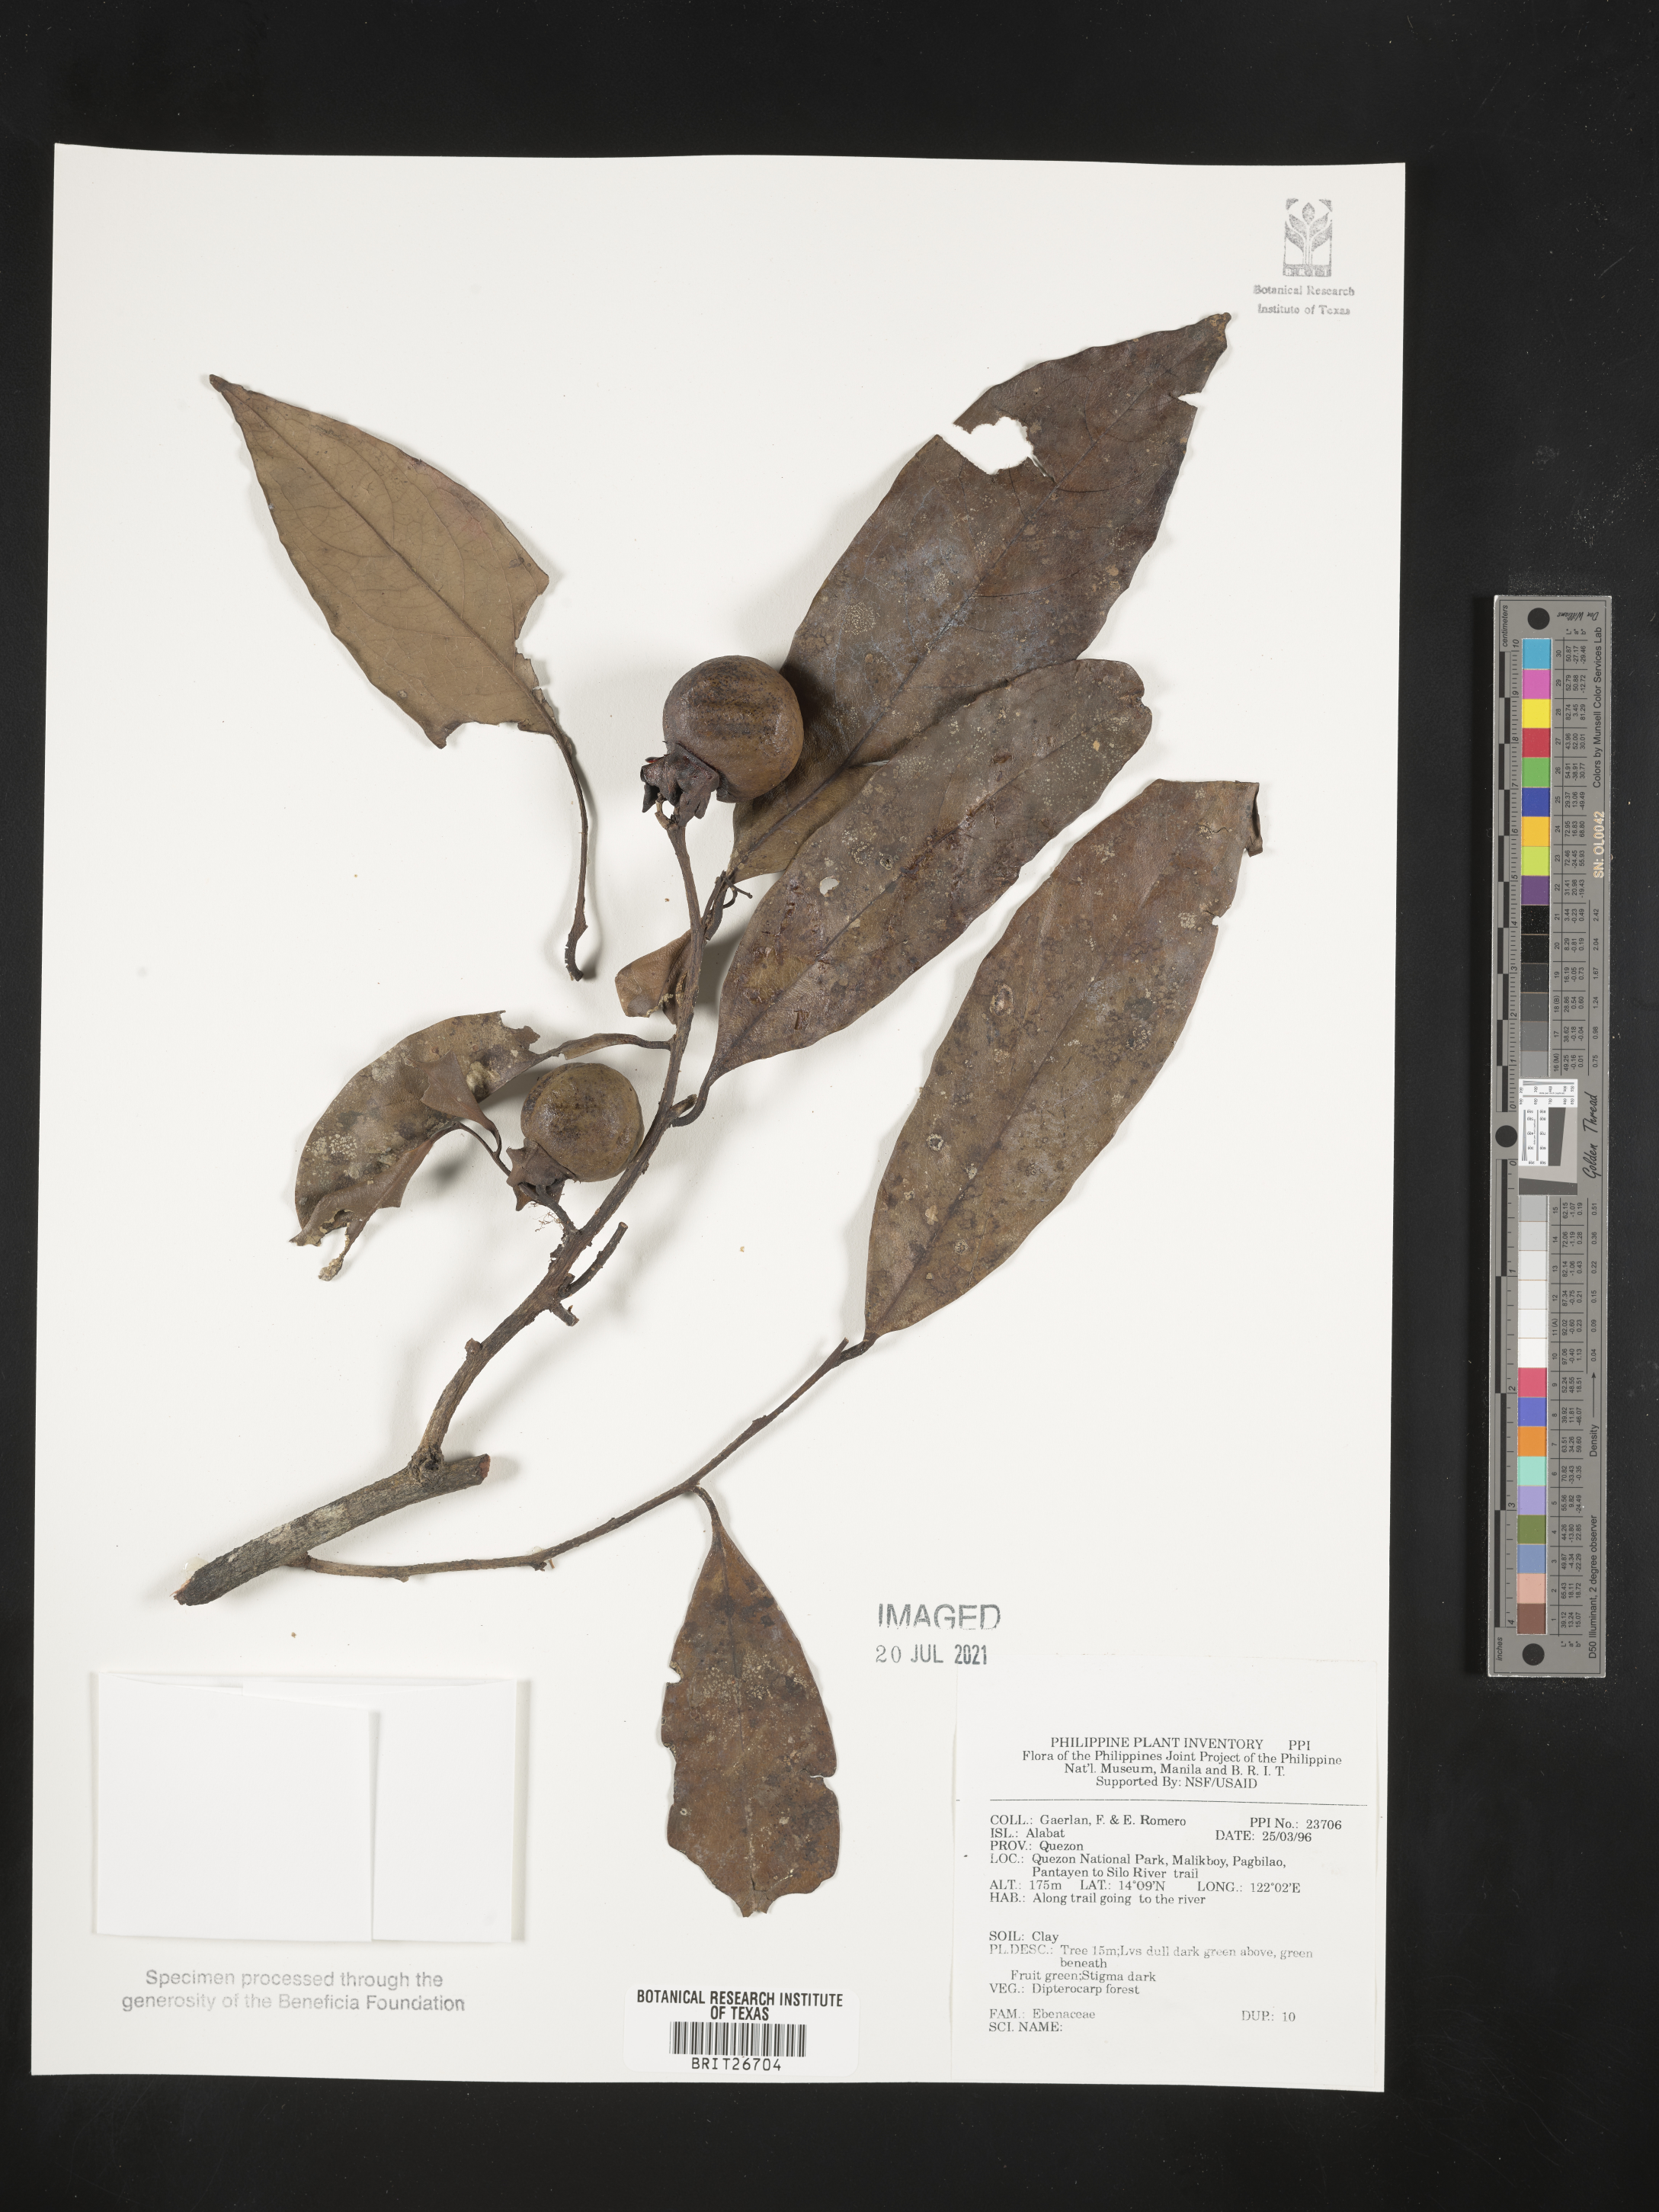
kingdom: Plantae
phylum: Tracheophyta
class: Magnoliopsida
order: Ericales
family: Ebenaceae
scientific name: Ebenaceae
